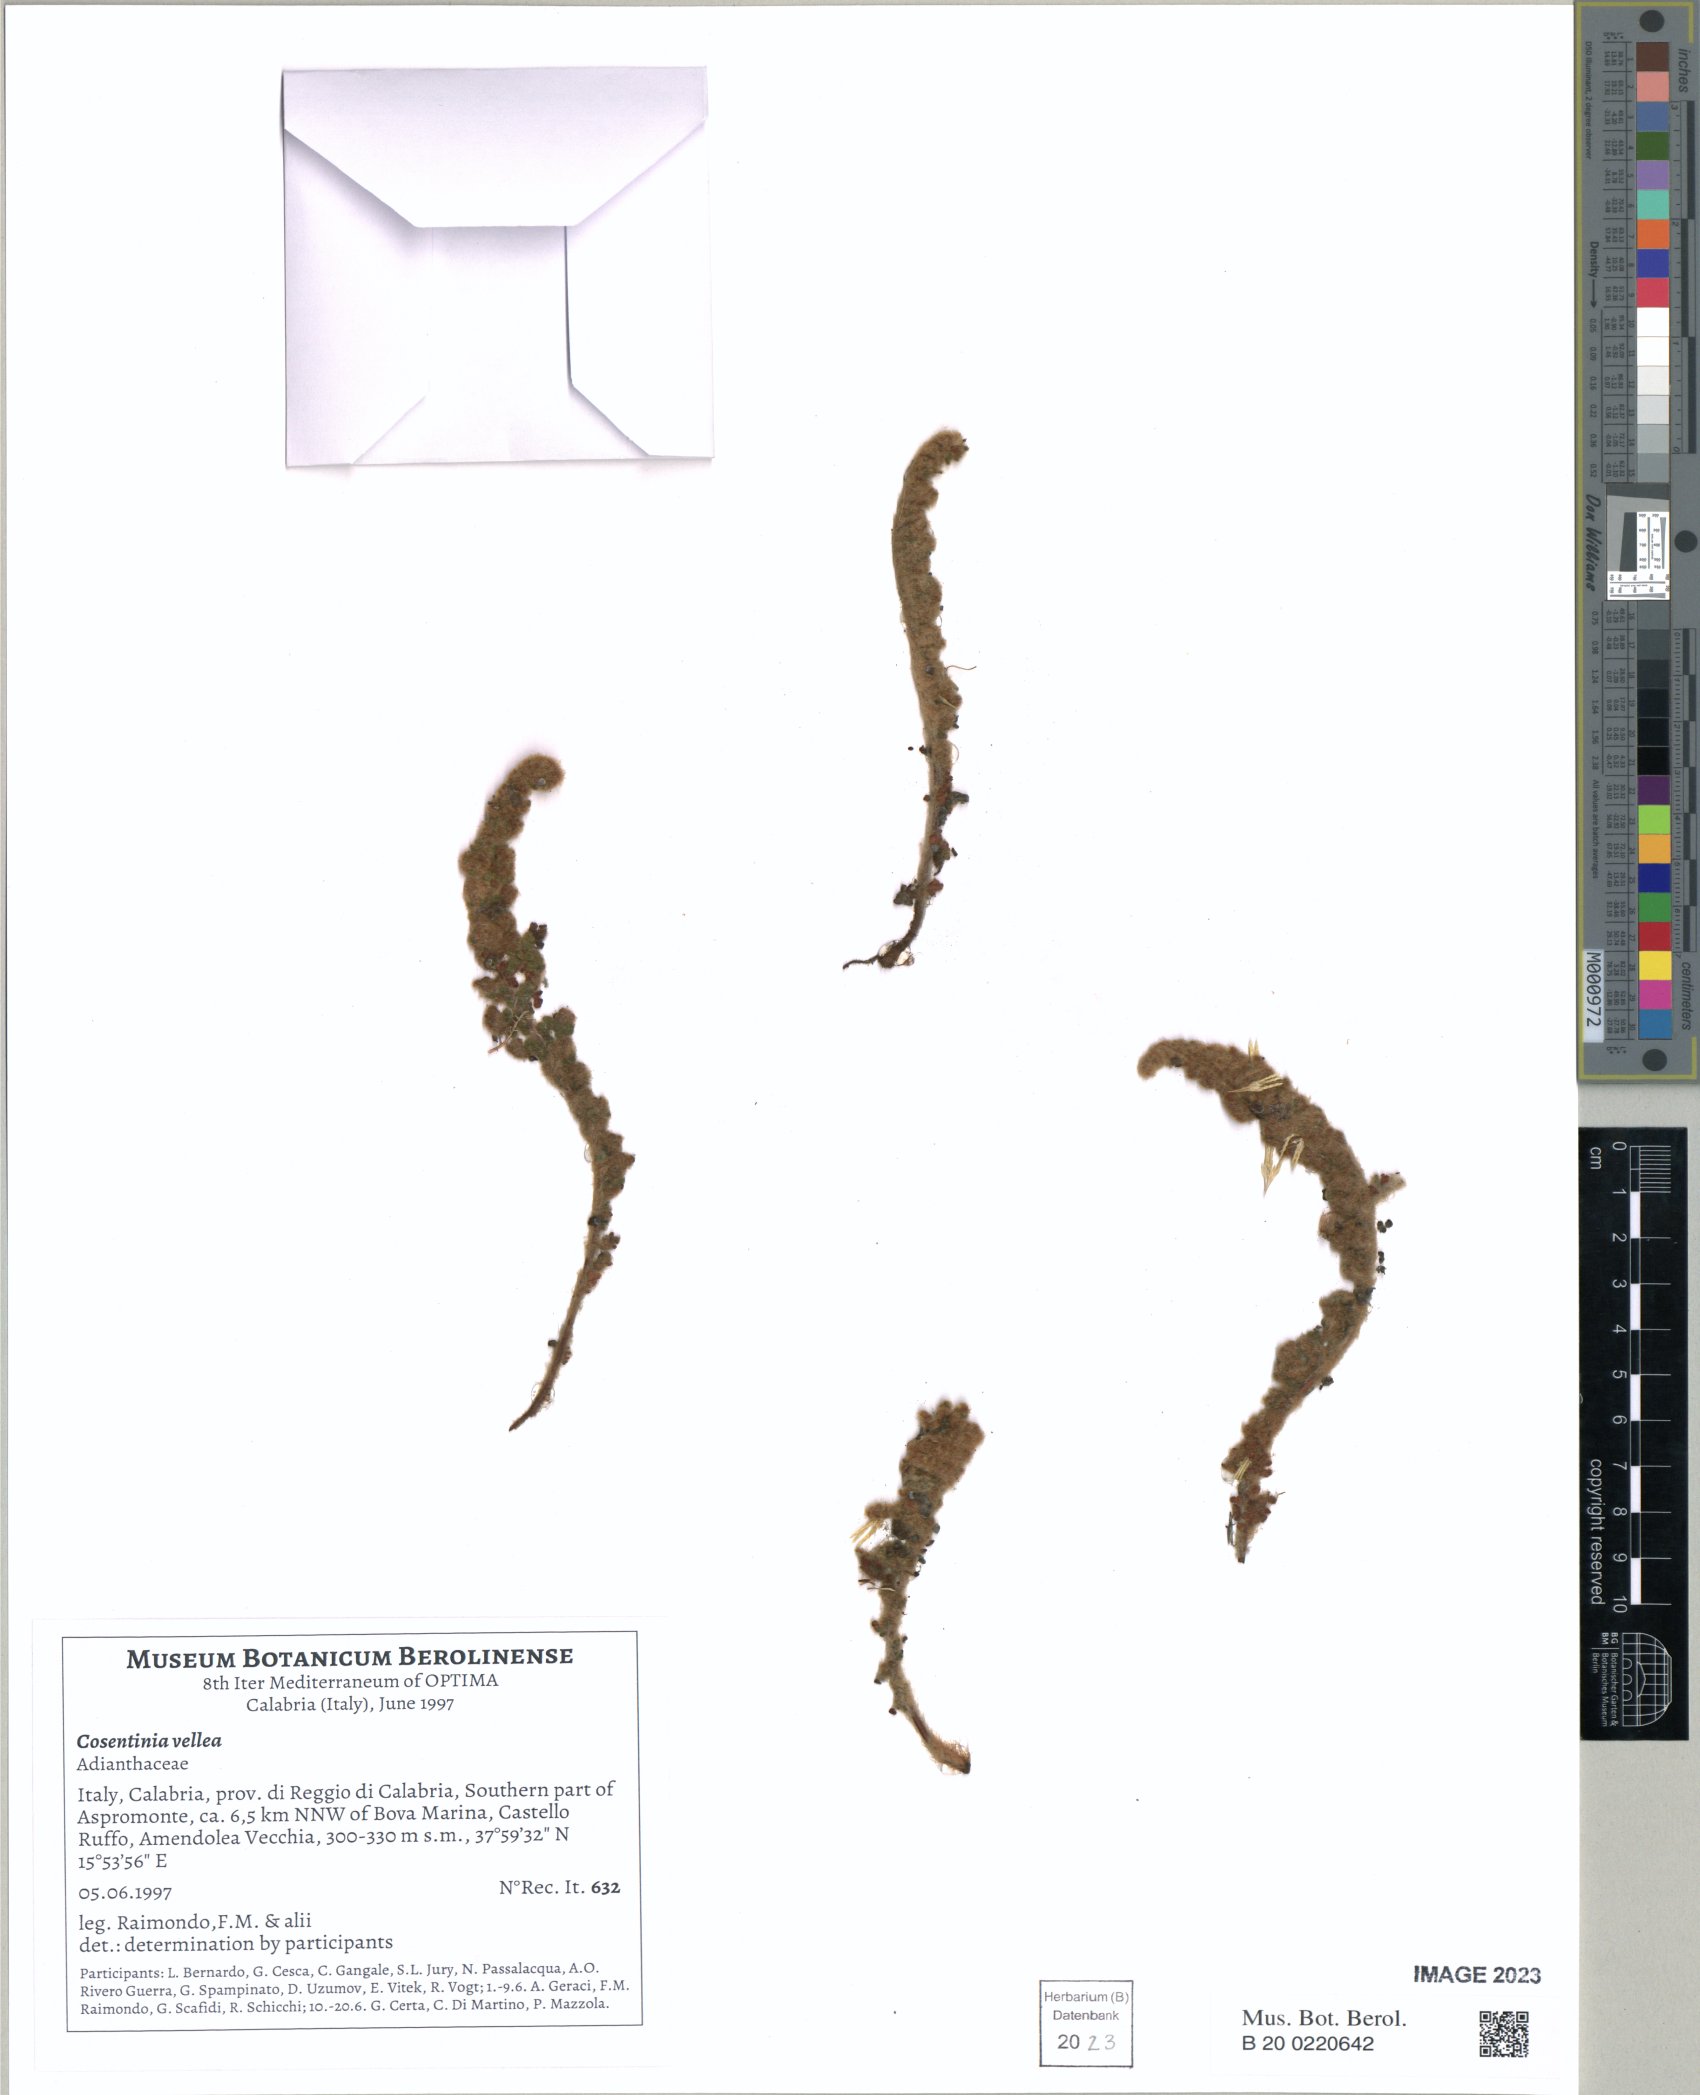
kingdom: Plantae
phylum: Tracheophyta
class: Polypodiopsida
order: Polypodiales
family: Pteridaceae
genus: Cosentinia
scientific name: Cosentinia vellea
